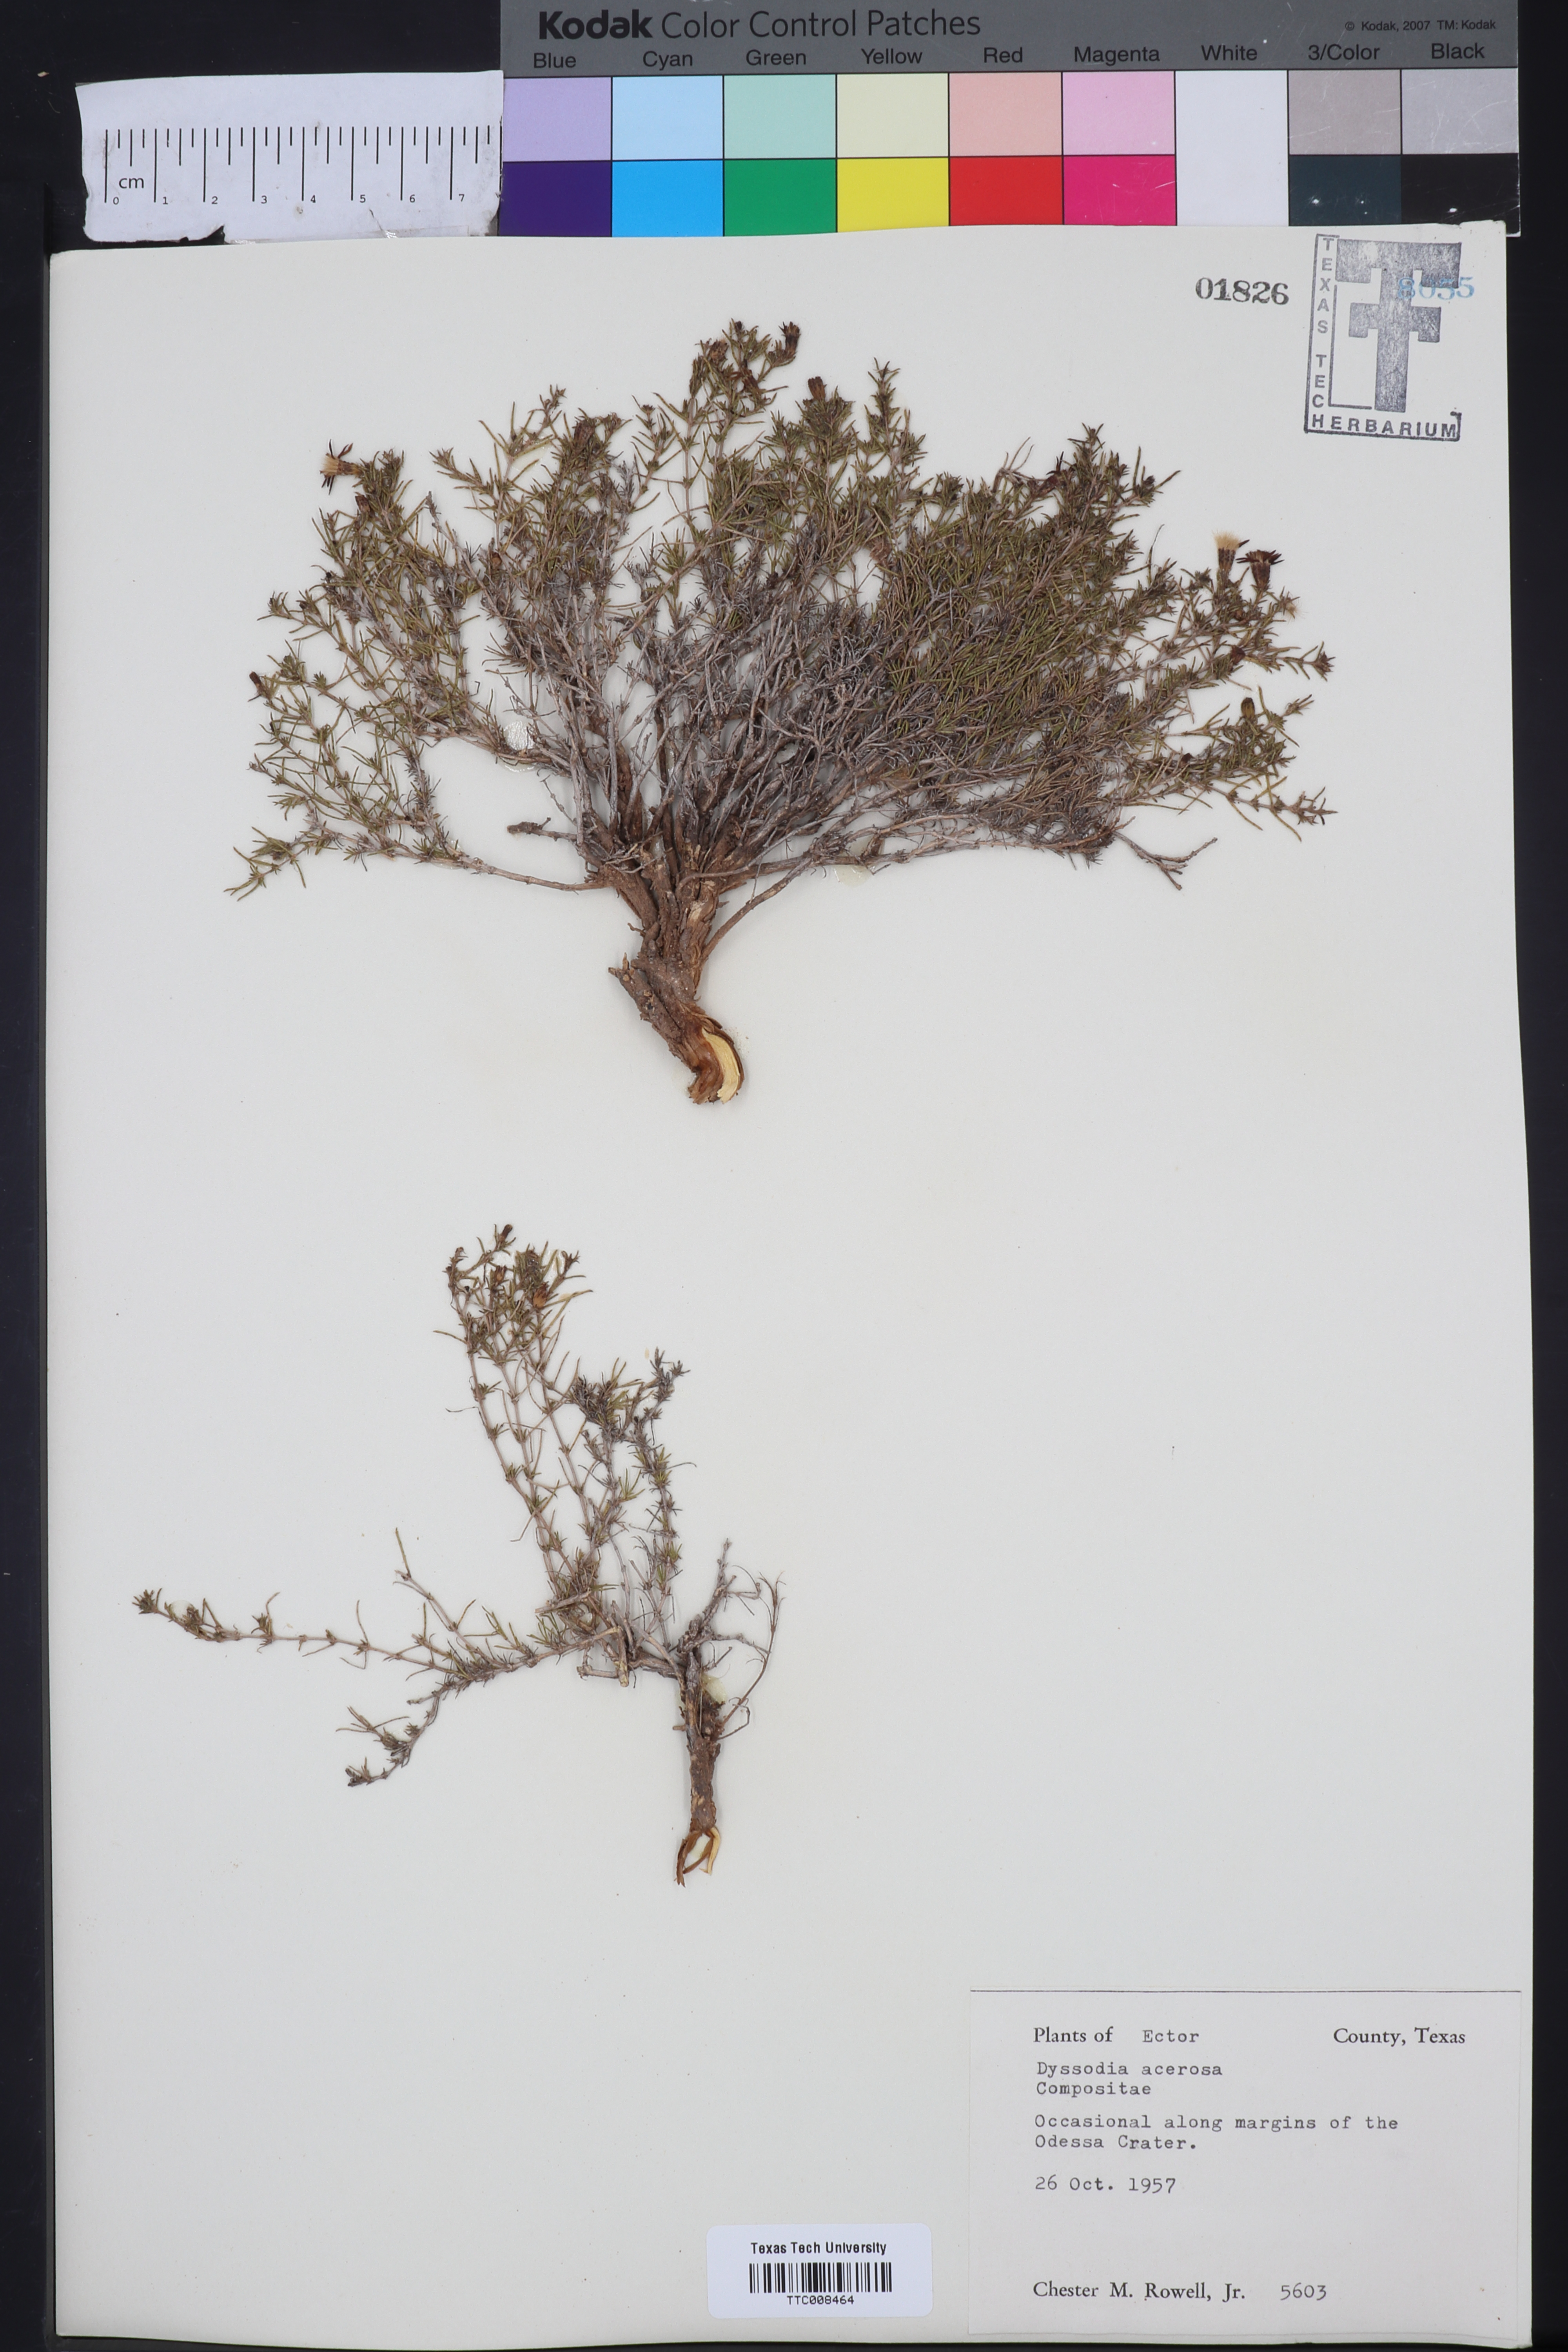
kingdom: Plantae
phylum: Tracheophyta
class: Magnoliopsida
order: Asterales
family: Asteraceae
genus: Thymophylla
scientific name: Thymophylla acerosa
